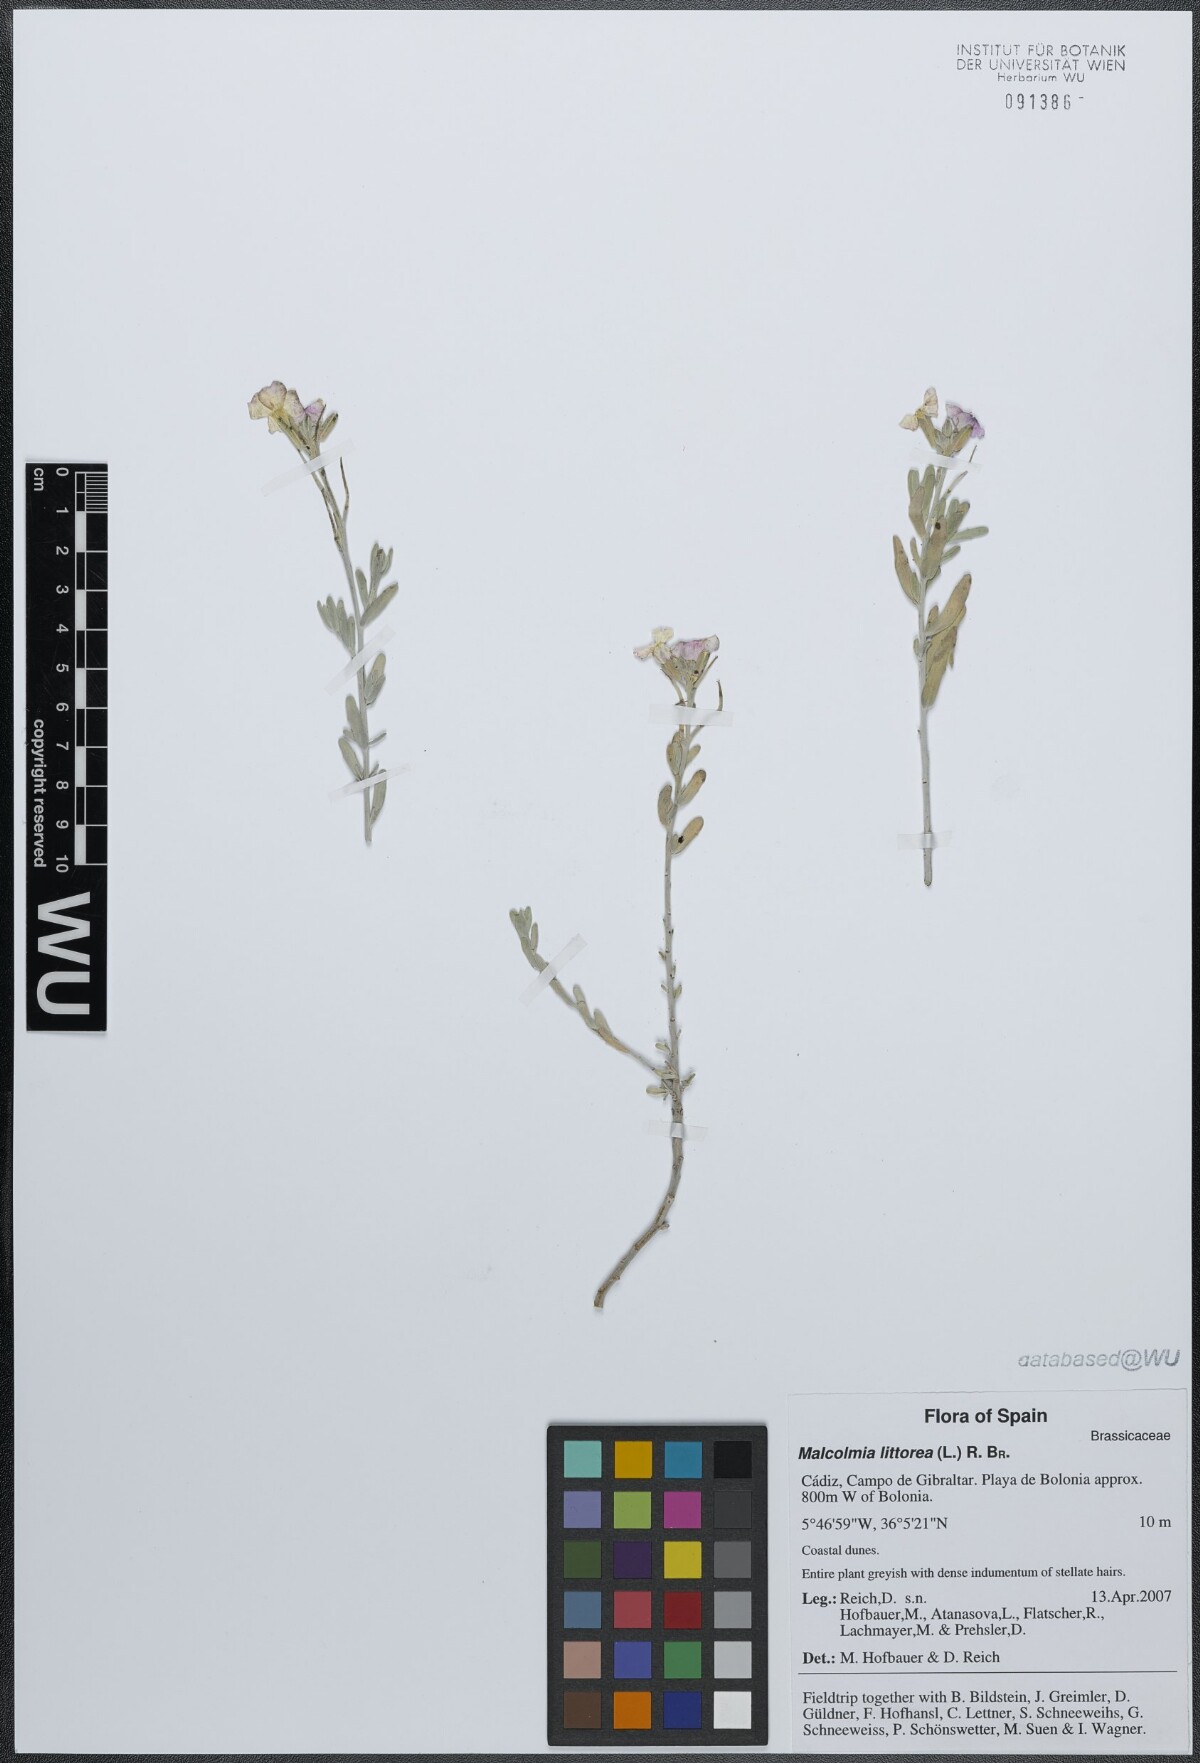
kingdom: Plantae
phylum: Tracheophyta
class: Magnoliopsida
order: Brassicales
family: Brassicaceae
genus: Marcuskochia
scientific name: Marcuskochia littorea
